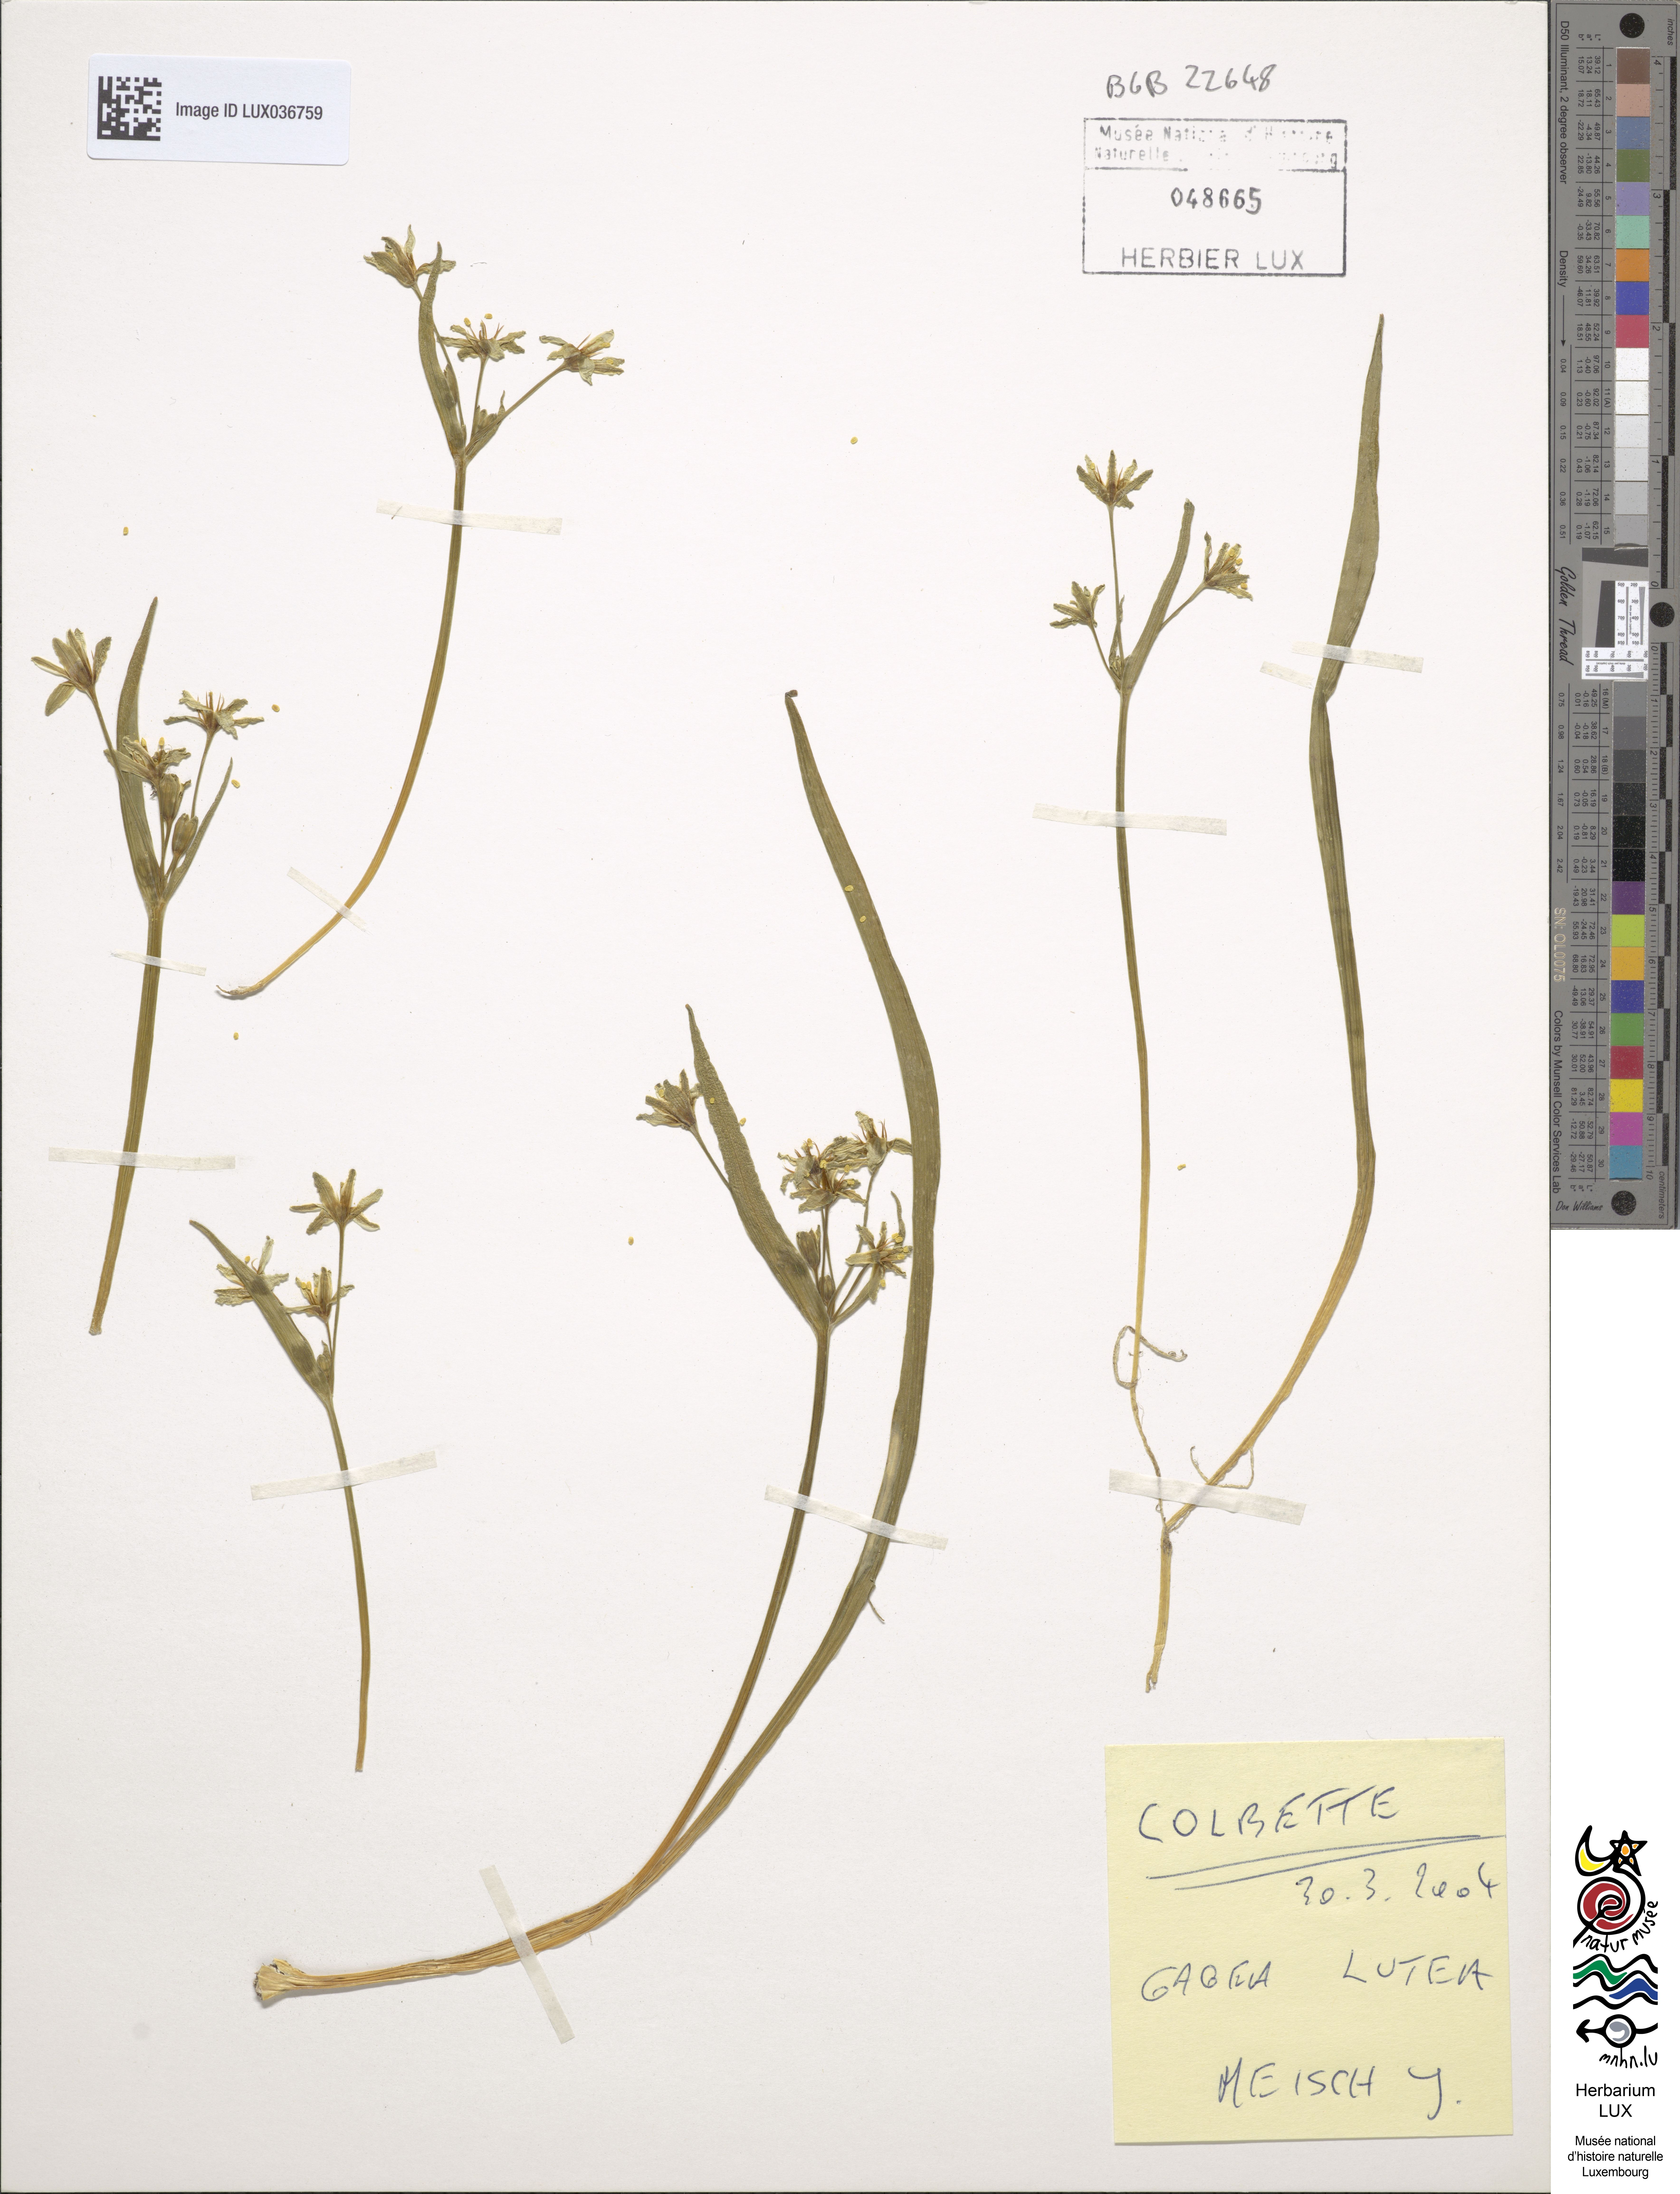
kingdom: Plantae
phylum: Tracheophyta
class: Liliopsida
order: Liliales
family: Liliaceae
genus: Gagea
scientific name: Gagea lutea
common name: Yellow star-of-bethlehem
